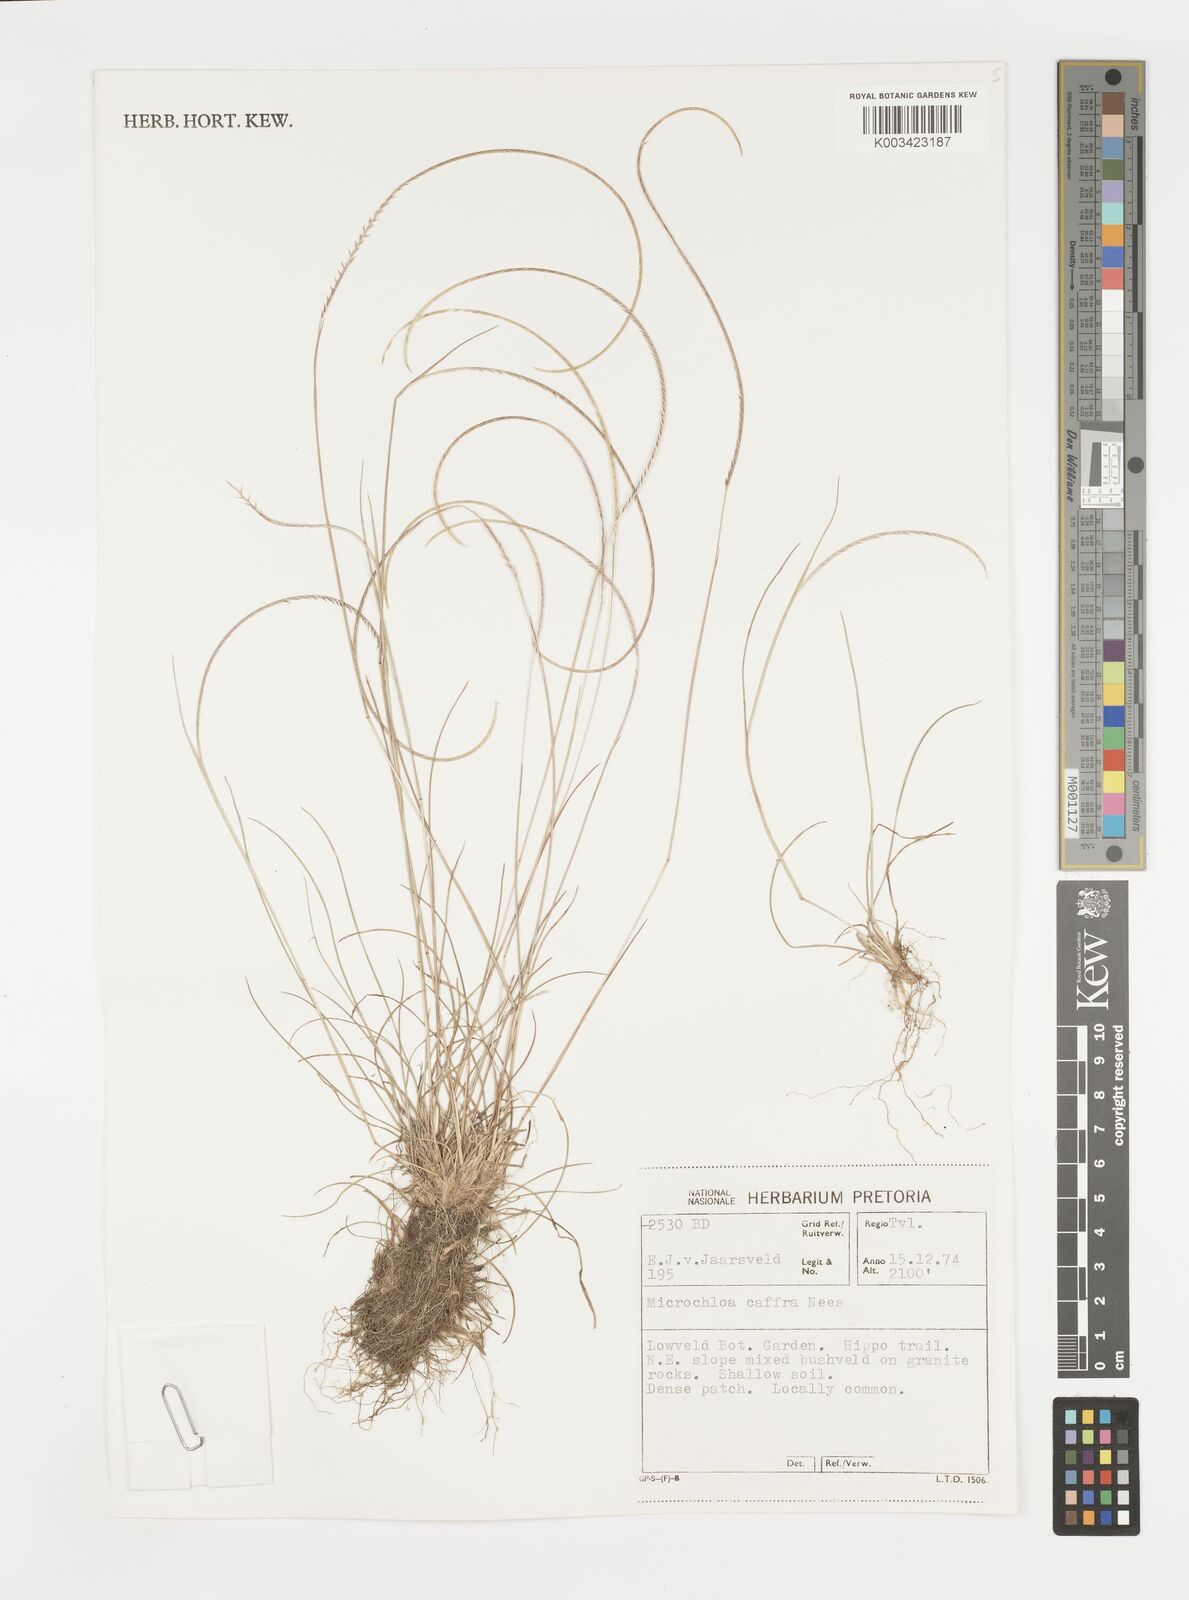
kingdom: Plantae
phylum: Tracheophyta
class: Liliopsida
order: Poales
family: Poaceae
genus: Microchloa
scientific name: Microchloa caffra
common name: Pincushion grass
